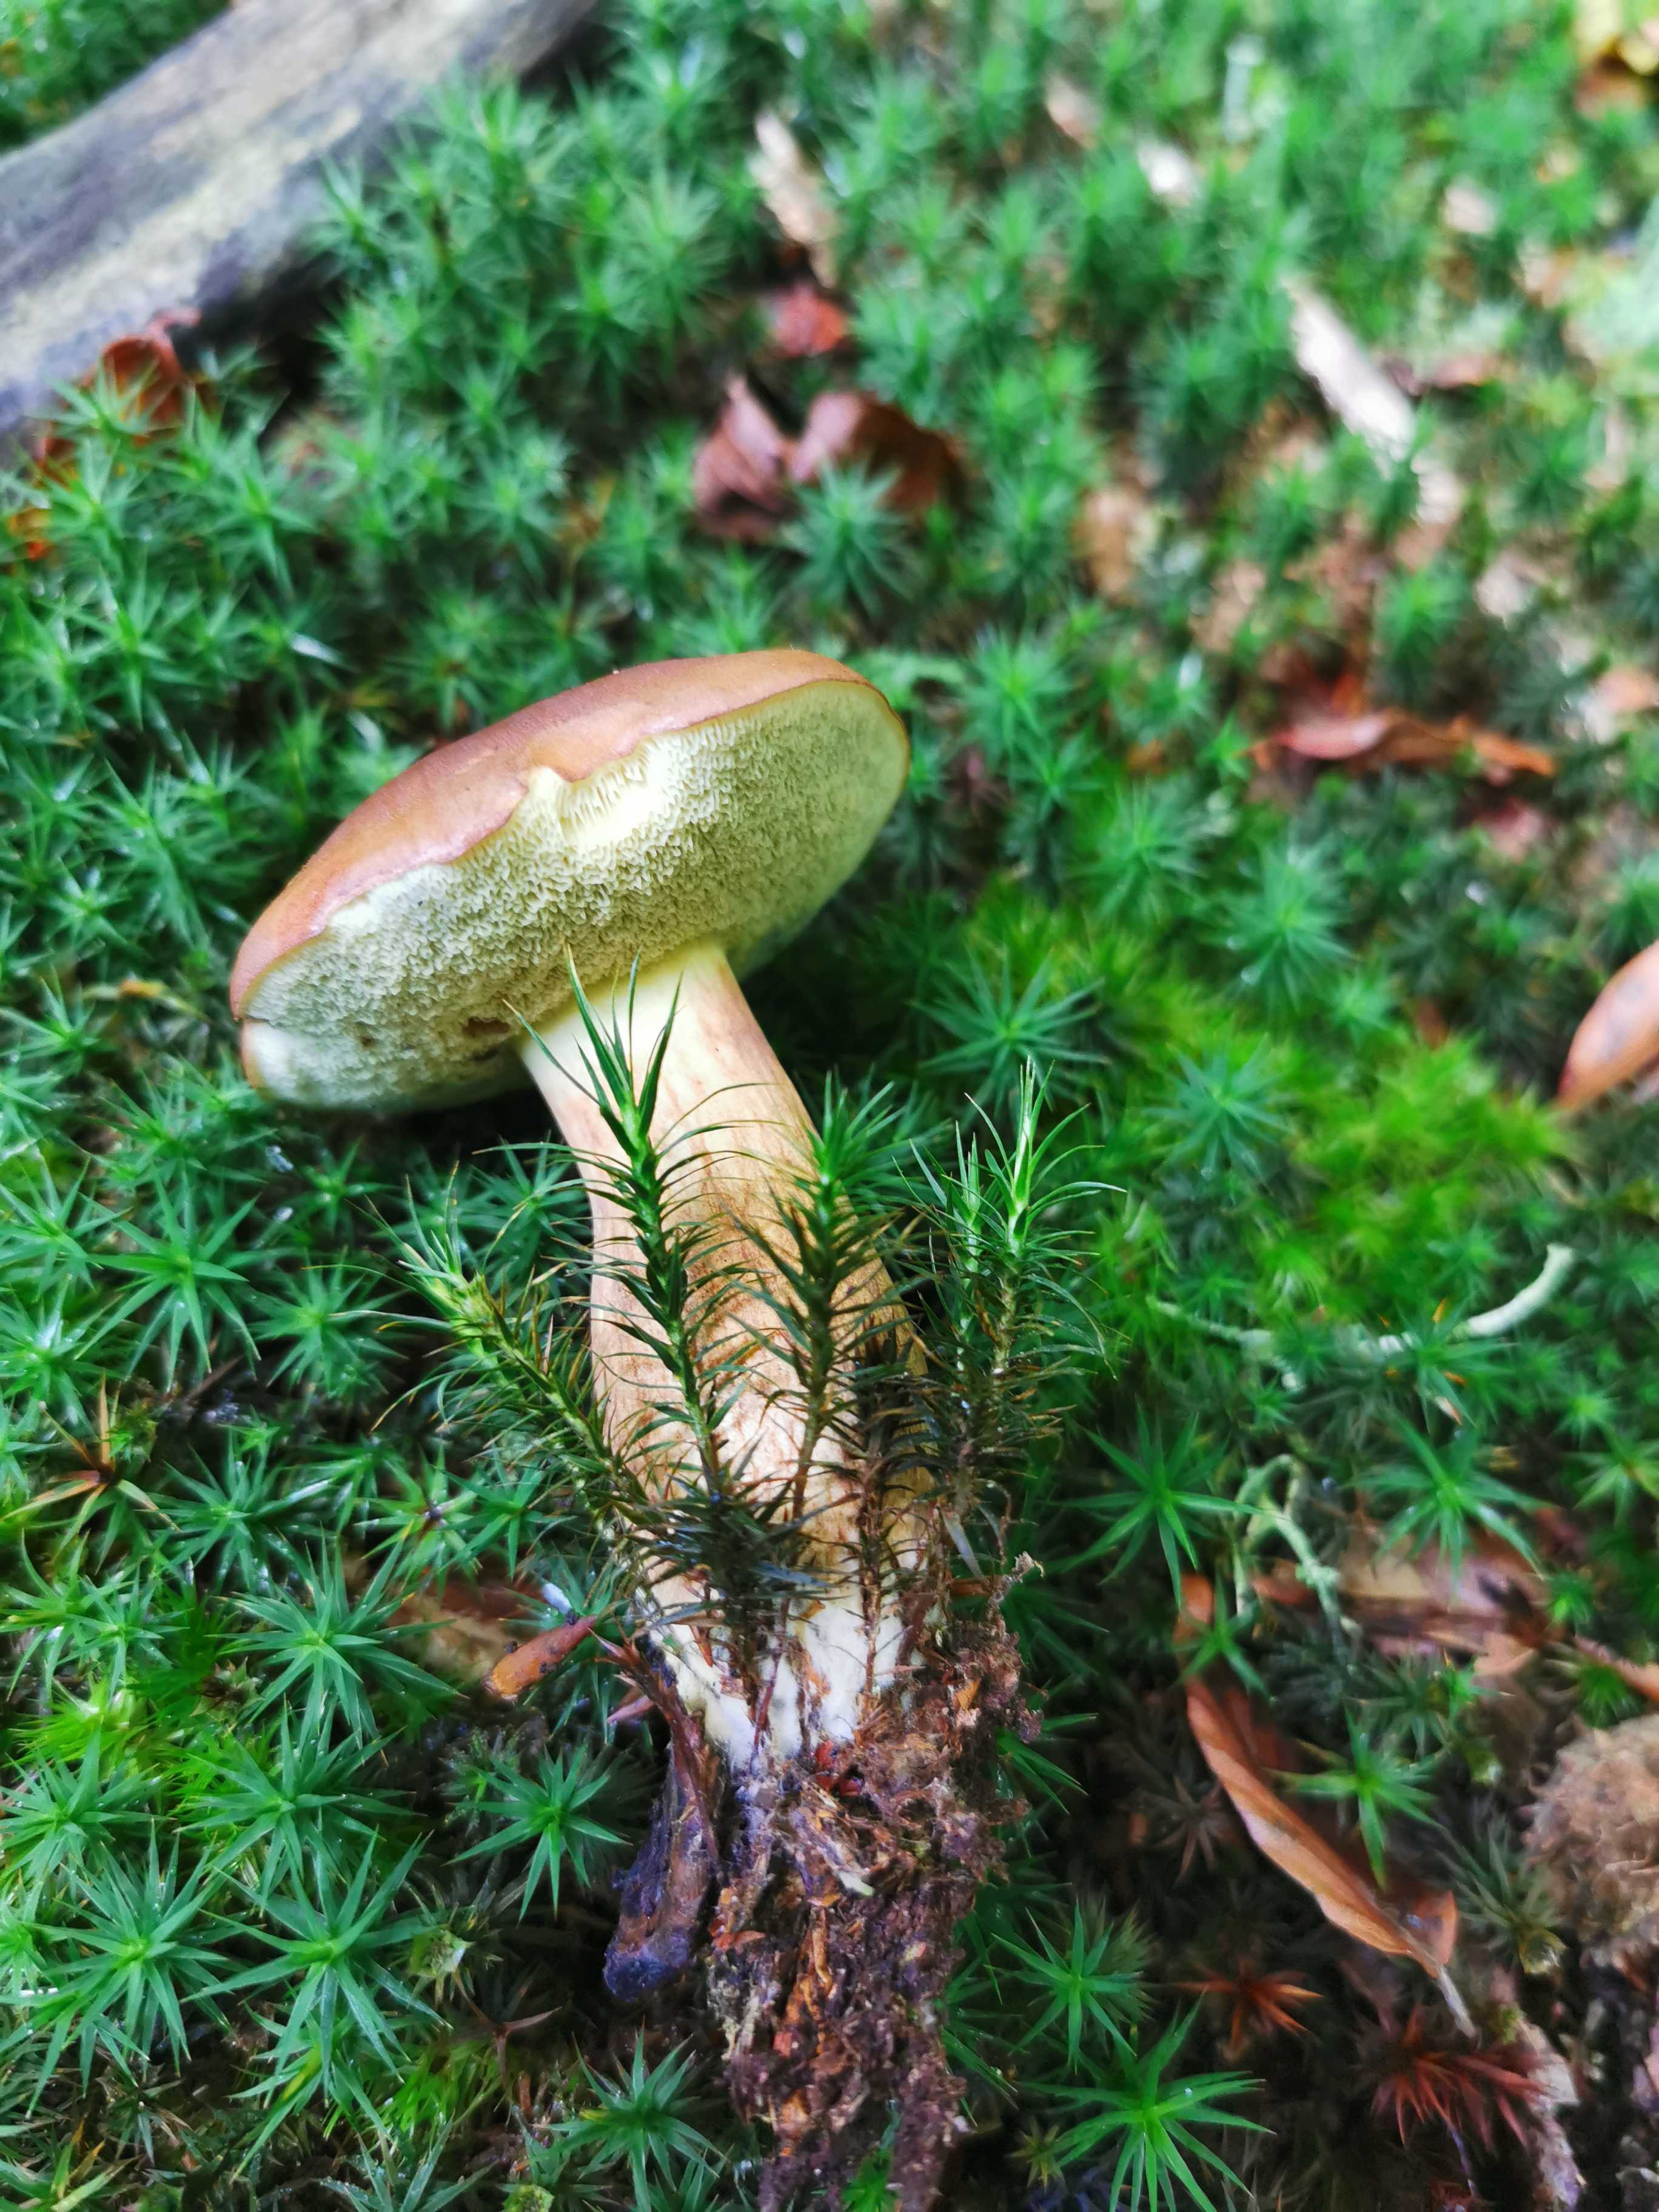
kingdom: Fungi
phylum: Basidiomycota
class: Agaricomycetes
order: Boletales
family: Boletaceae
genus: Imleria
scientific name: Imleria badia
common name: brunstokket rørhat
